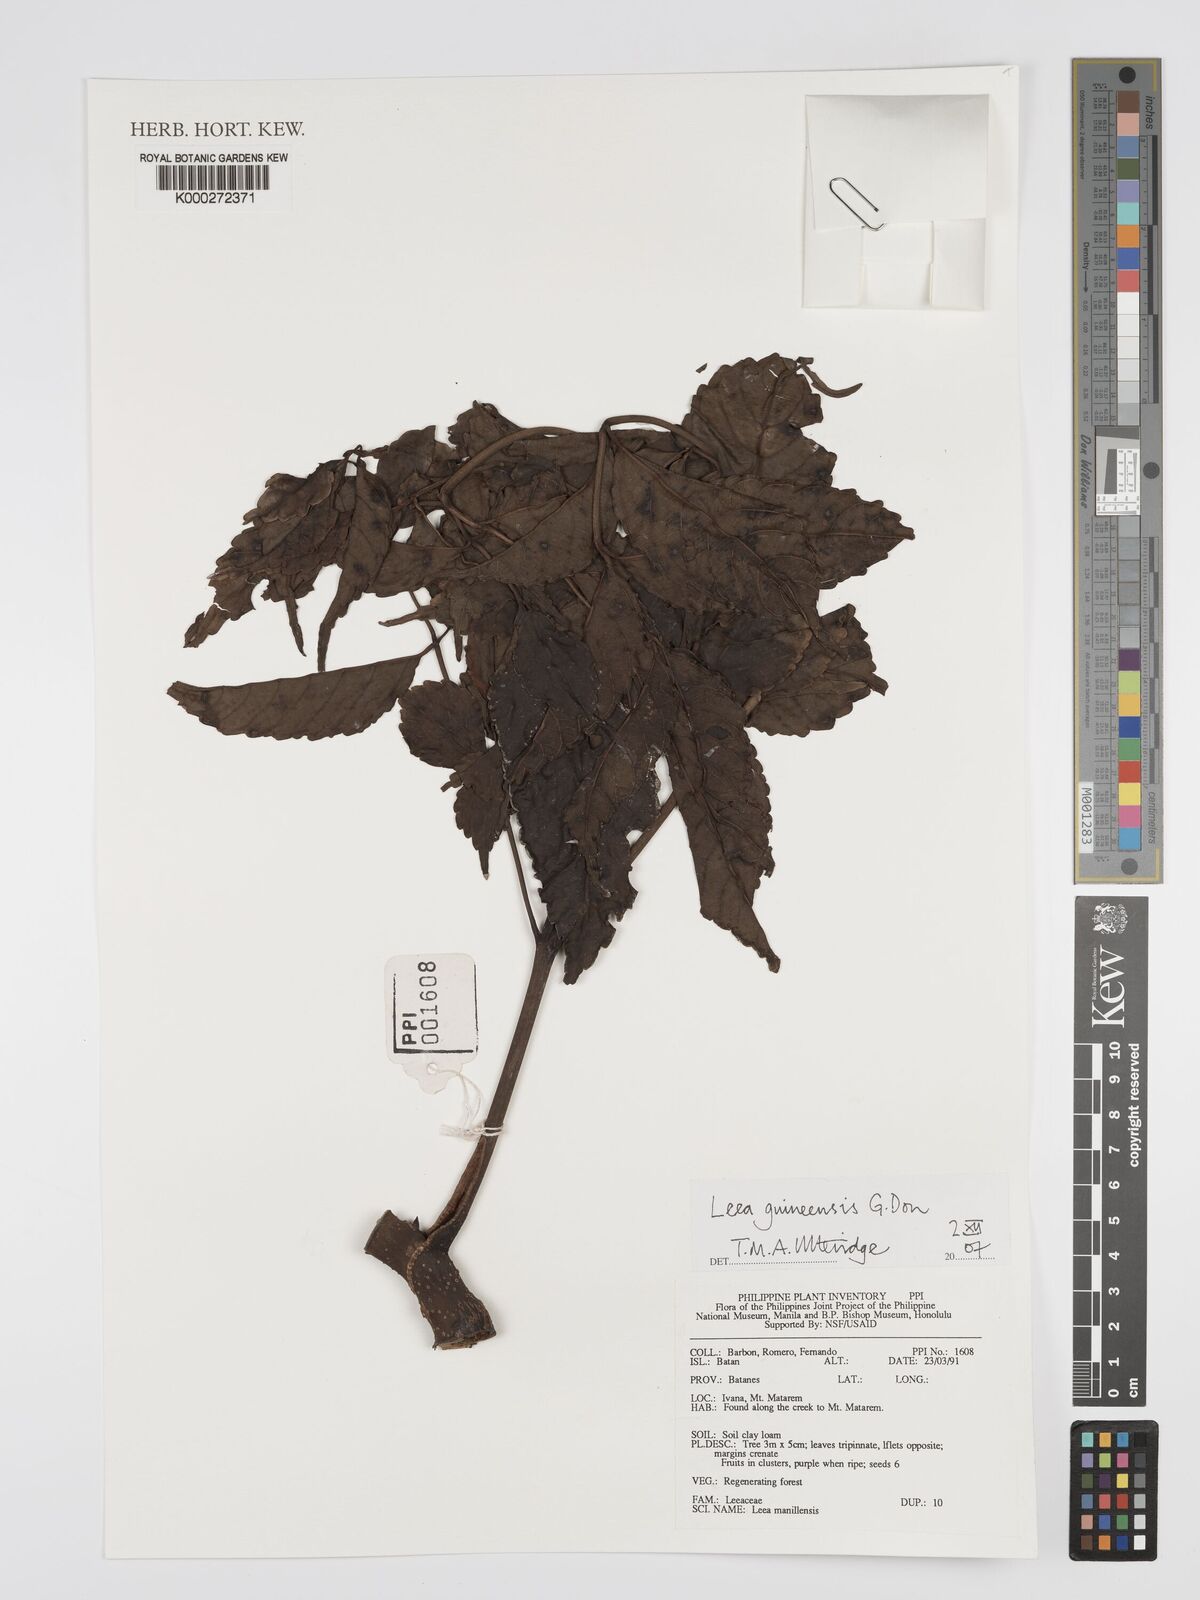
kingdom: Plantae
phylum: Tracheophyta
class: Magnoliopsida
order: Vitales
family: Vitaceae
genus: Leea
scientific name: Leea guineensis
